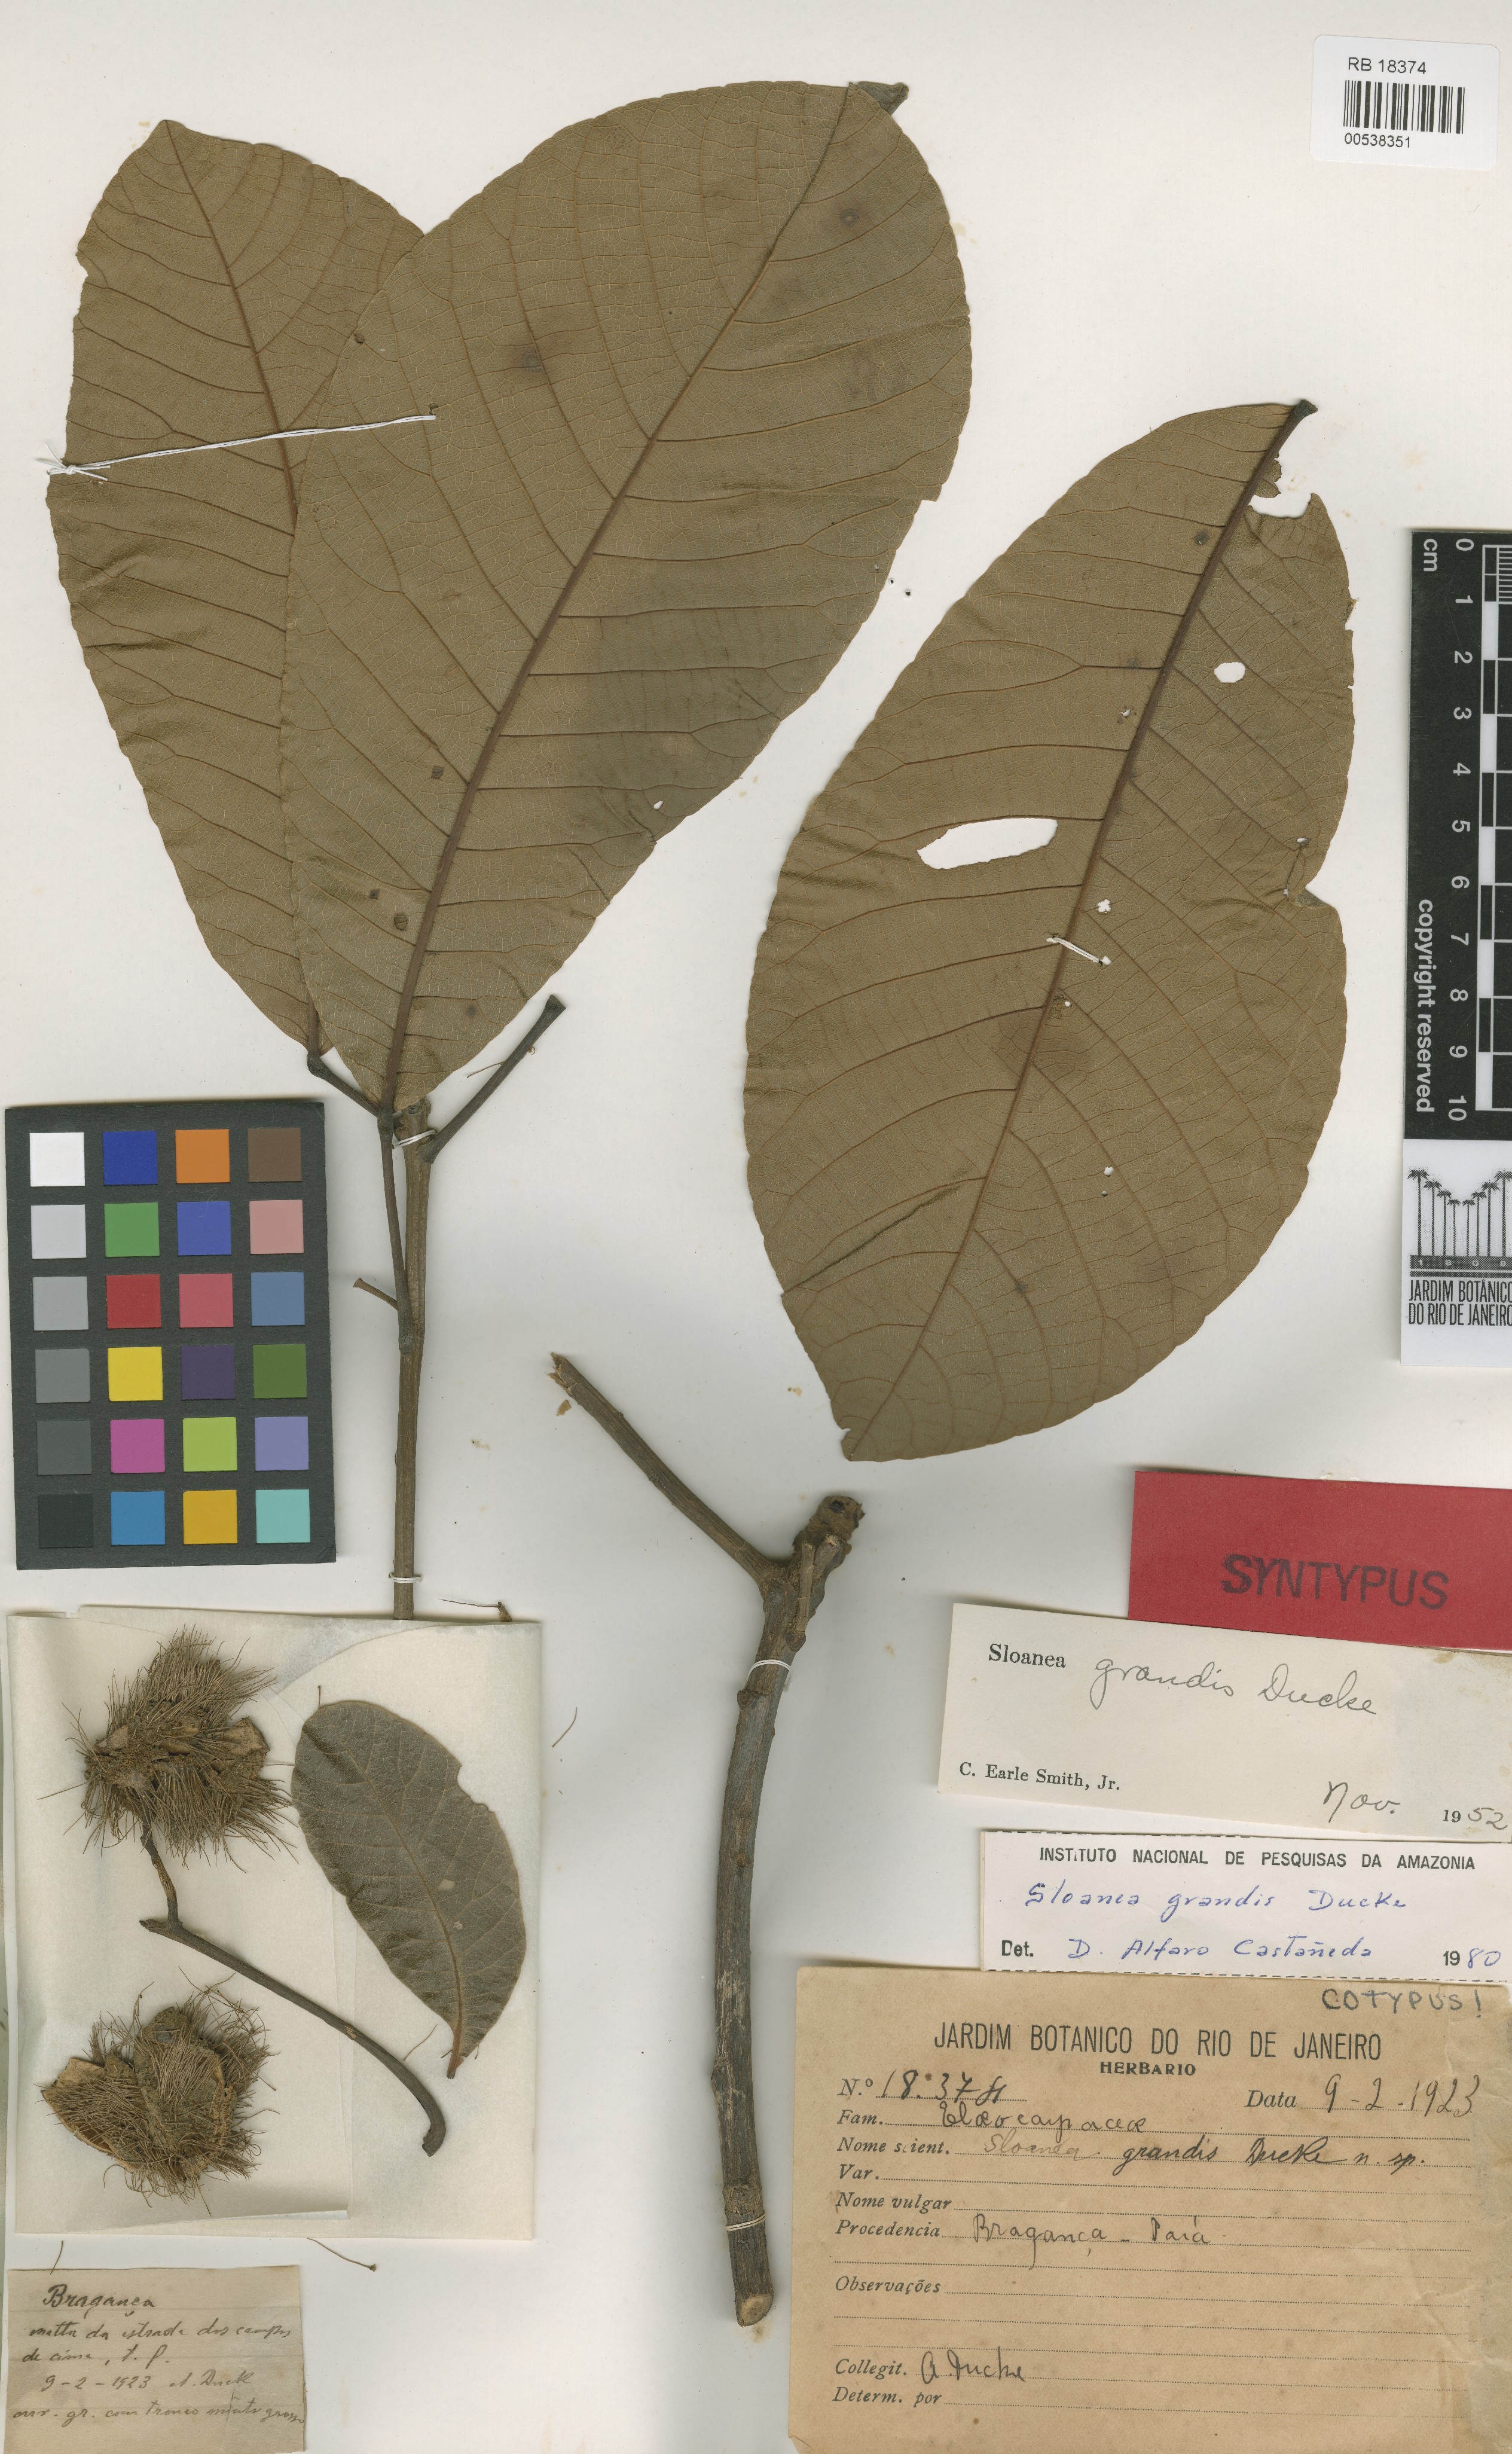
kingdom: Plantae
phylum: Tracheophyta
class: Magnoliopsida
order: Oxalidales
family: Elaeocarpaceae
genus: Sloanea
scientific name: Sloanea grandis
